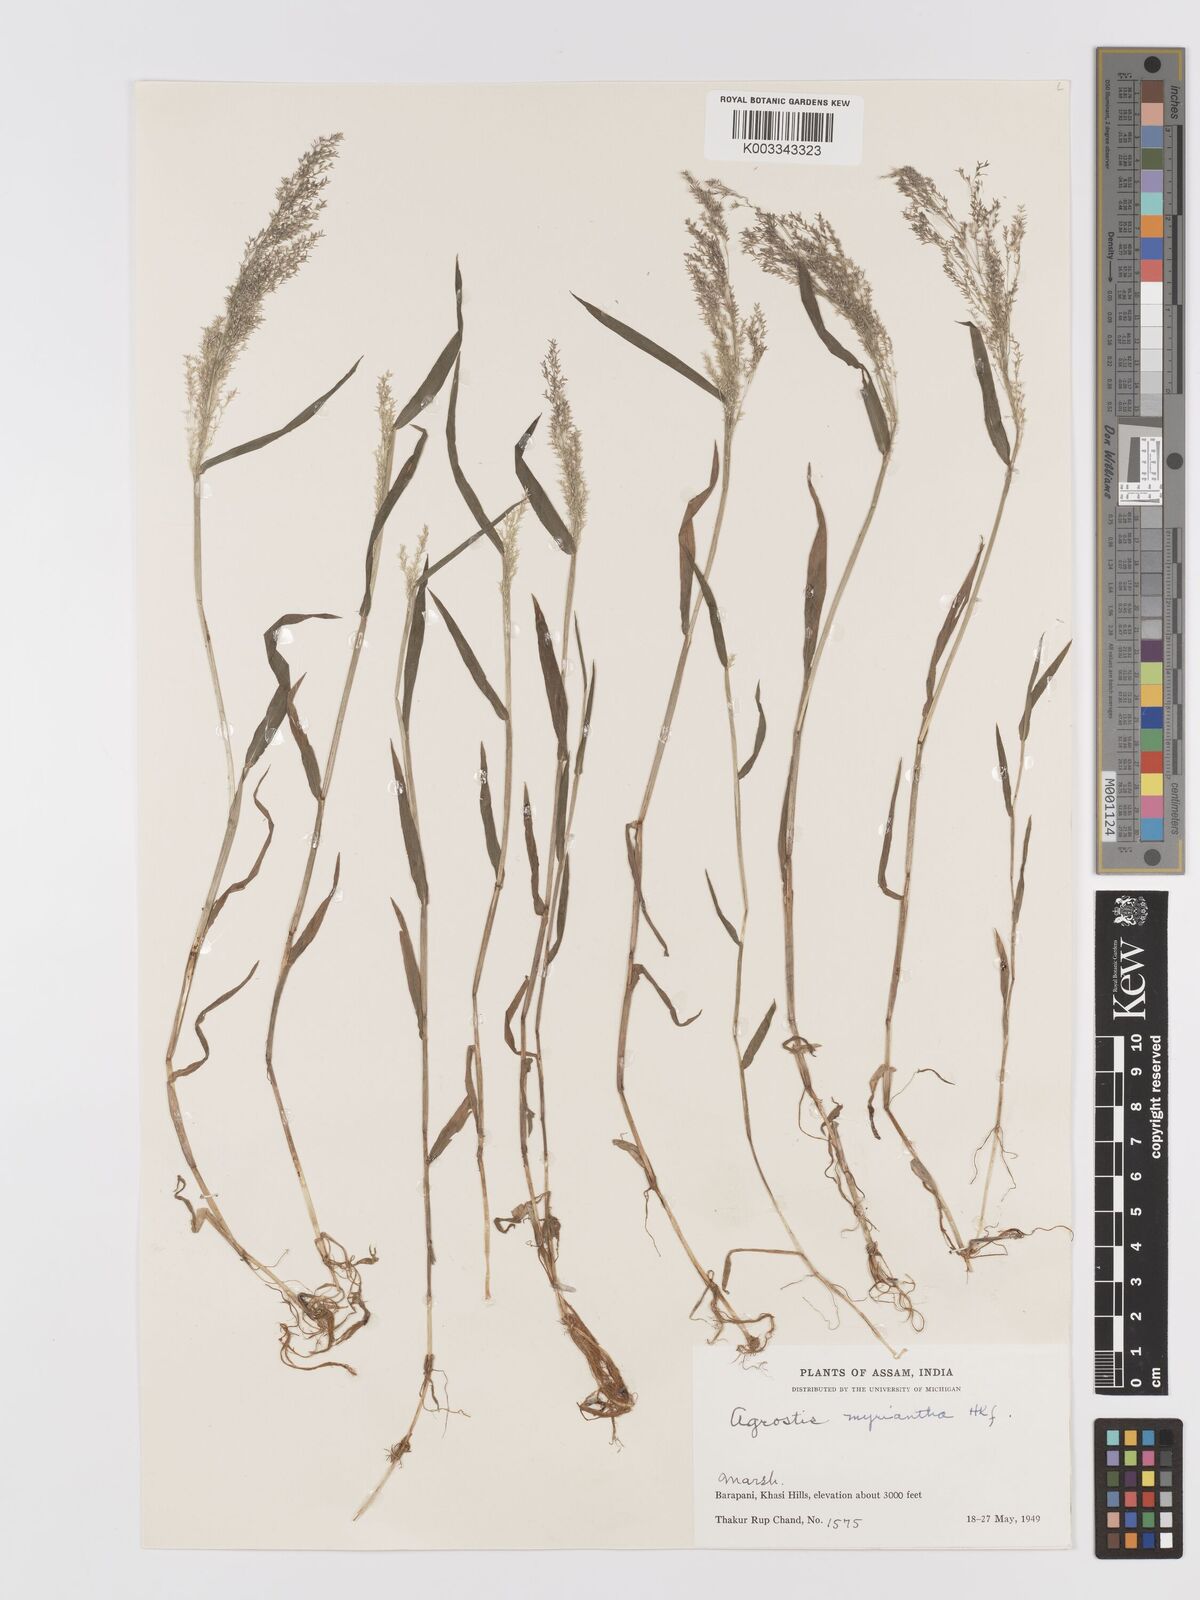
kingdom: Plantae
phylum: Tracheophyta
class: Liliopsida
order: Poales
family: Poaceae
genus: Agrostis
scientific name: Agrostis micrantha
